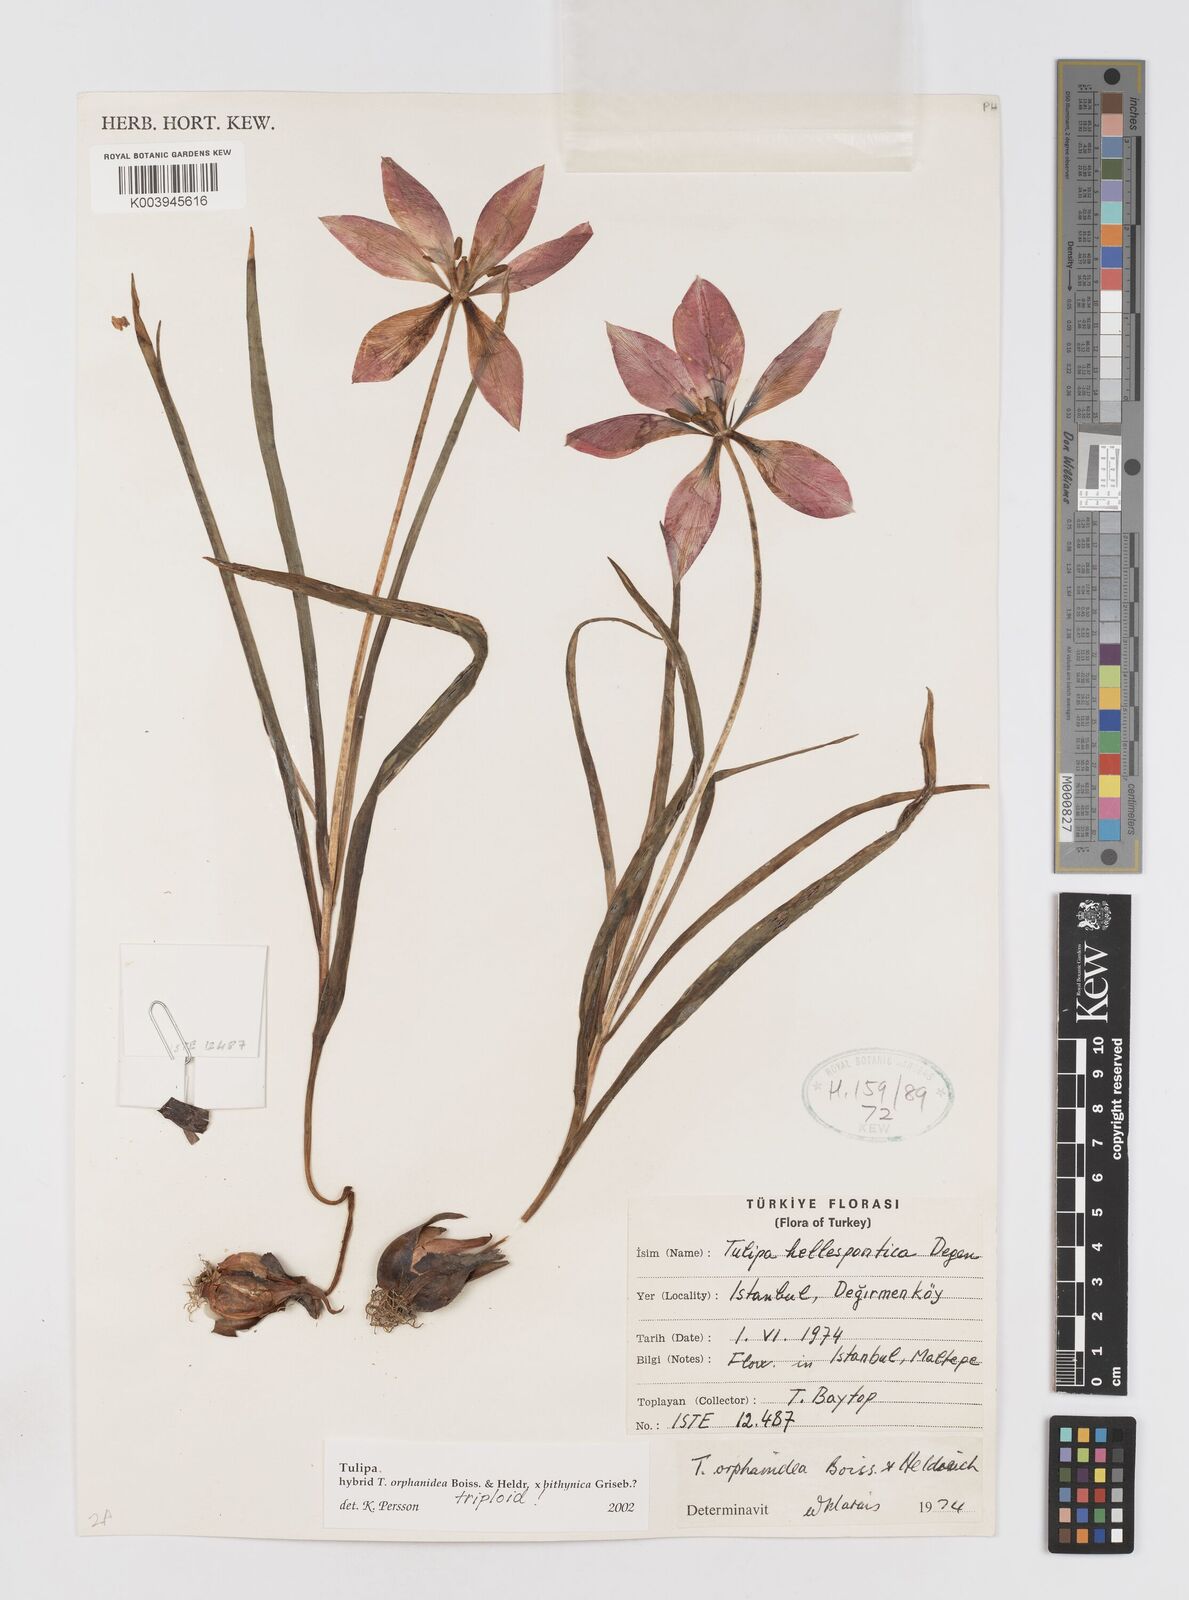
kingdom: Plantae
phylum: Tracheophyta
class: Liliopsida
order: Liliales
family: Liliaceae
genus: Tulipa
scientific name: Tulipa orphanidea
